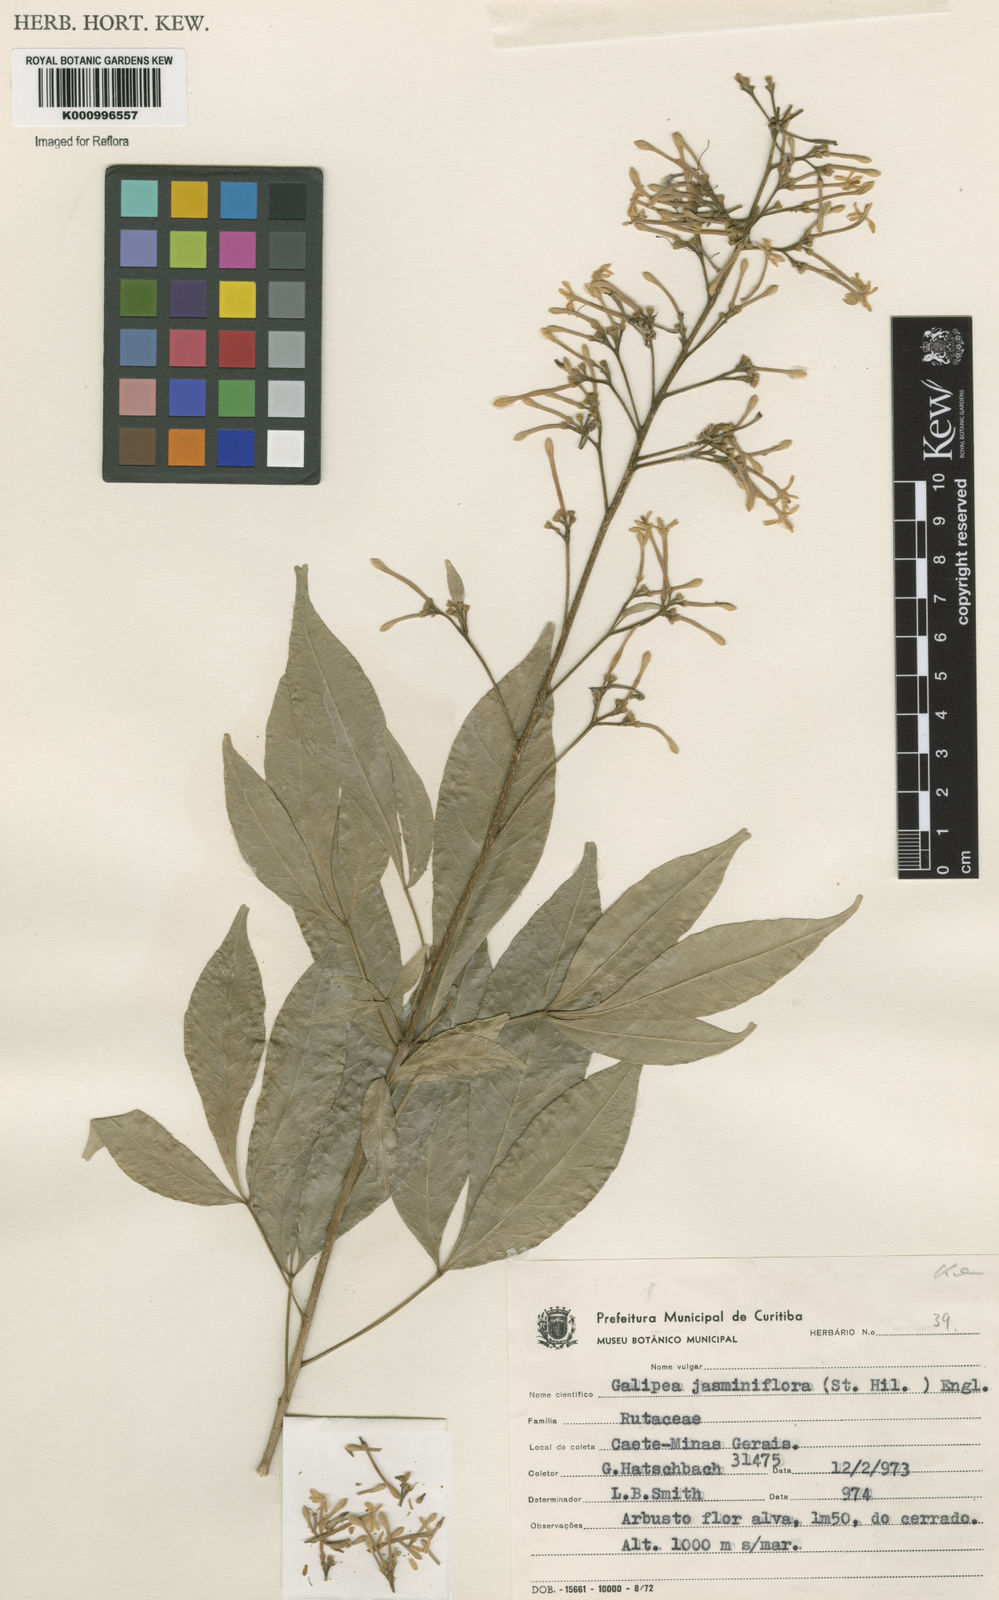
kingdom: Plantae
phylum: Tracheophyta
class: Magnoliopsida
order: Sapindales
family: Rutaceae
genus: Galipea
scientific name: Galipea
